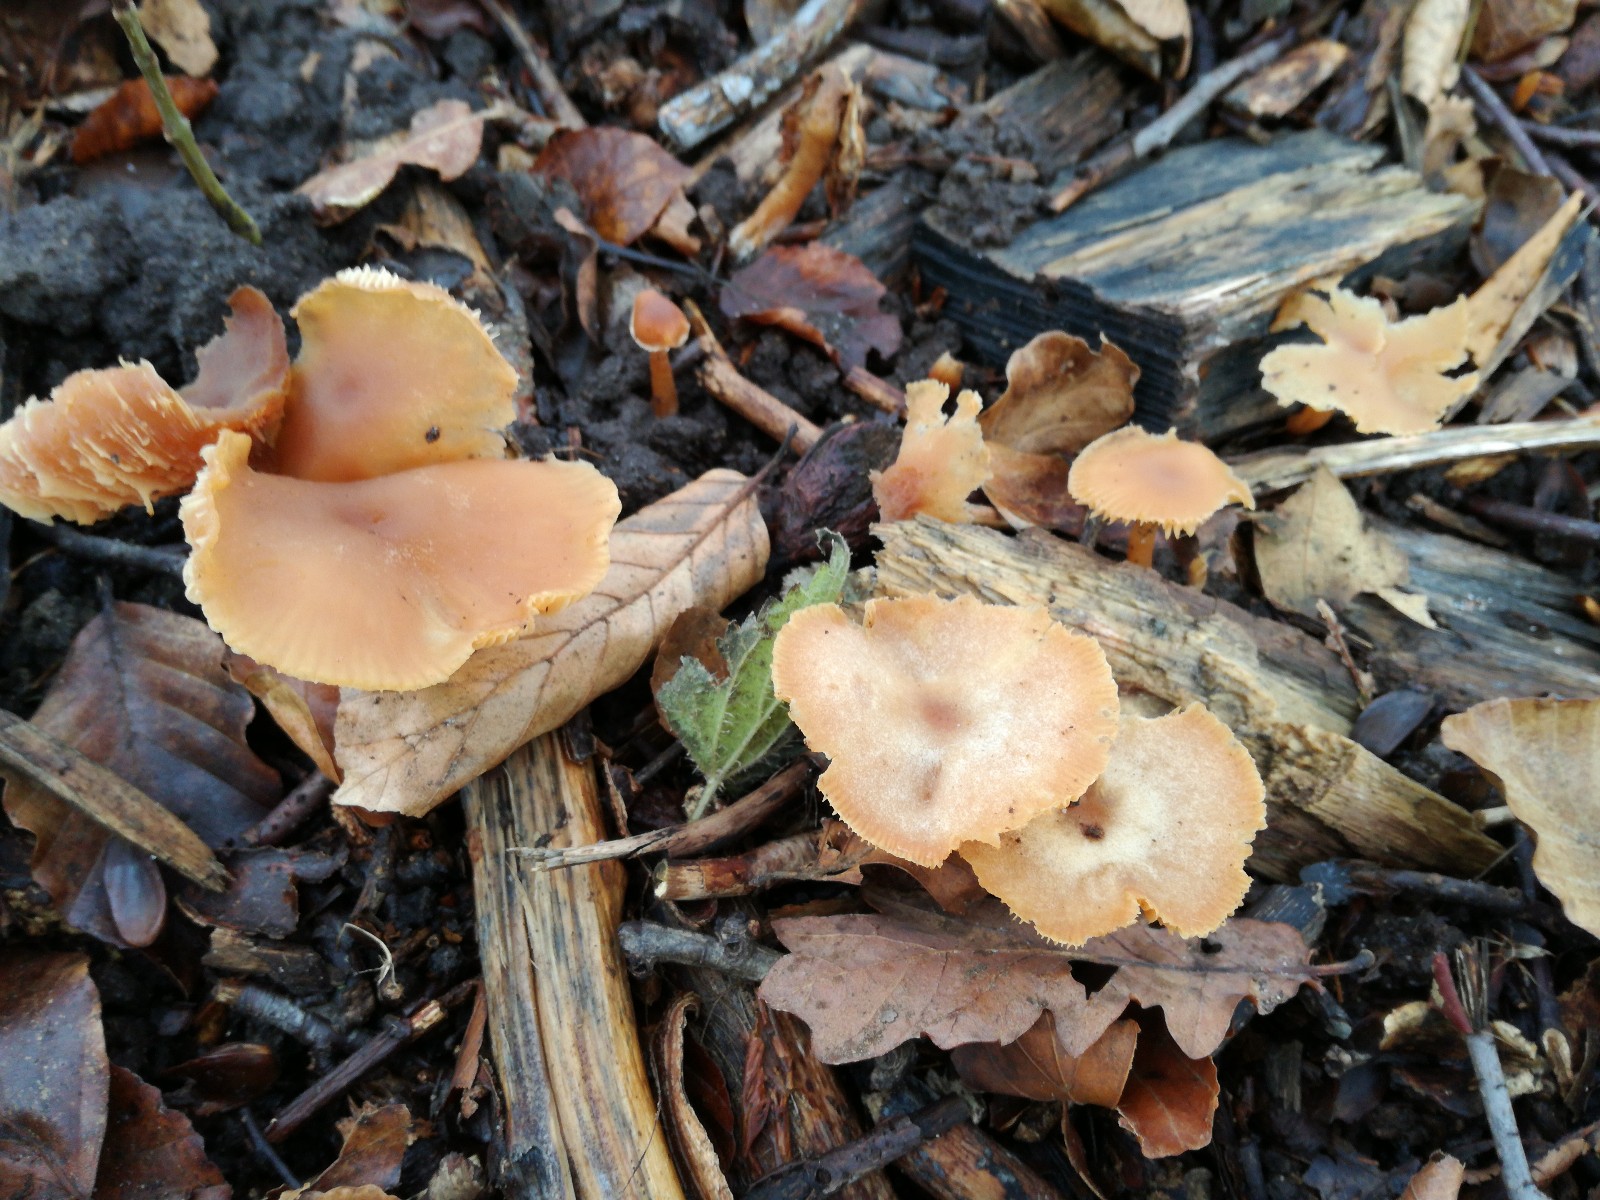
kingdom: Fungi
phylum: Basidiomycota
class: Agaricomycetes
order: Agaricales
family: Tubariaceae
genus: Tubaria
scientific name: Tubaria furfuracea
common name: kliddet fnughat
